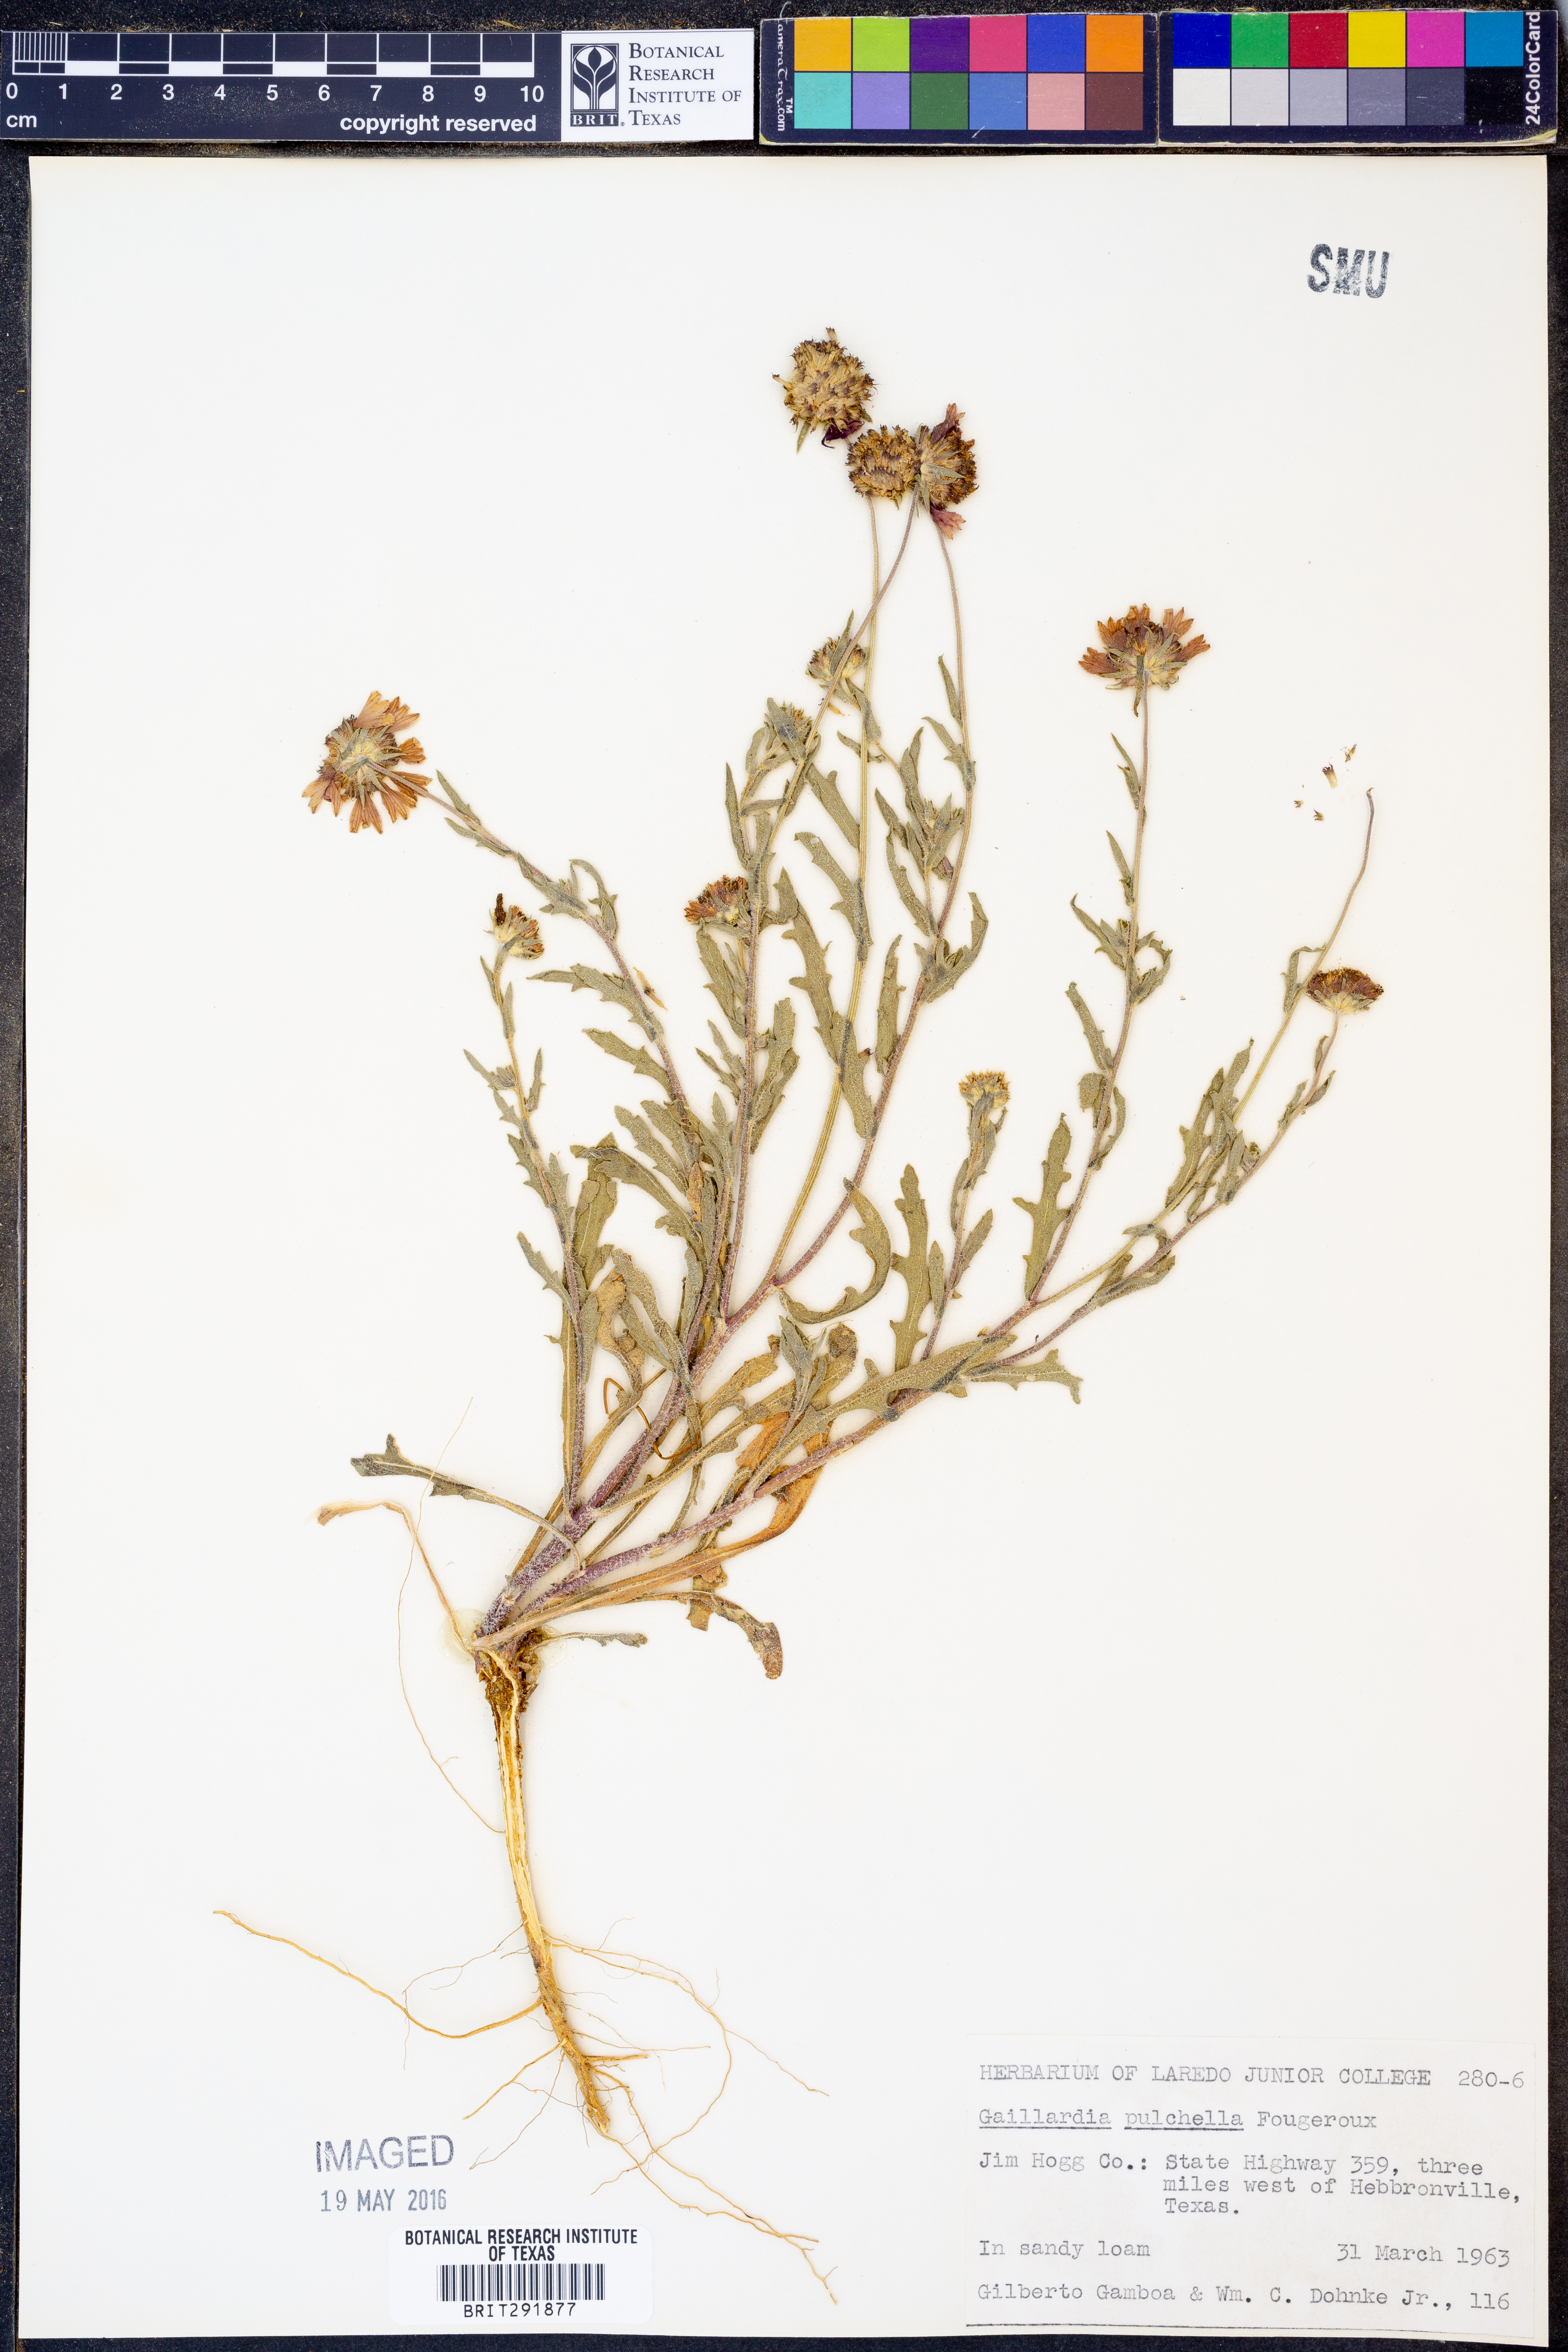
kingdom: Plantae
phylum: Tracheophyta
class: Magnoliopsida
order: Asterales
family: Asteraceae
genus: Gaillardia
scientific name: Gaillardia pulchella
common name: Firewheel
